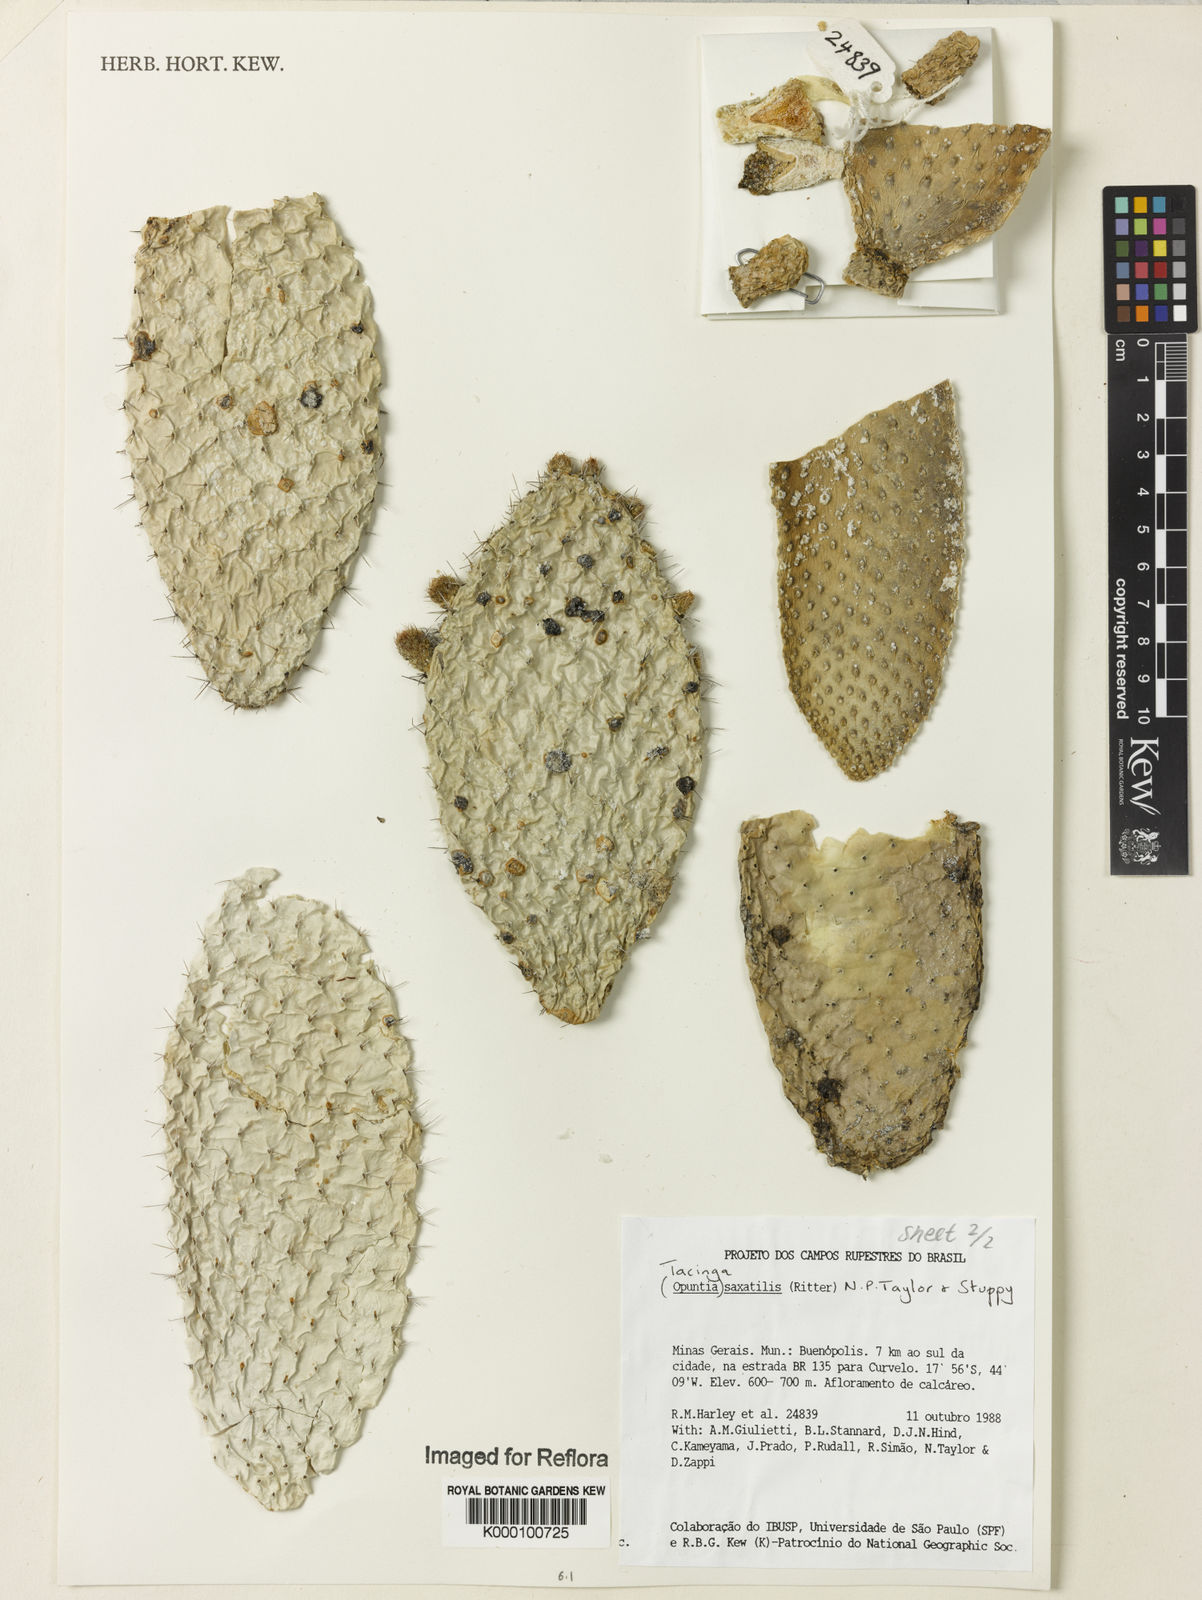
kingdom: Plantae
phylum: Tracheophyta
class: Magnoliopsida
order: Caryophyllales
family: Cactaceae
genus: Tacinga
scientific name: Tacinga saxatilis
